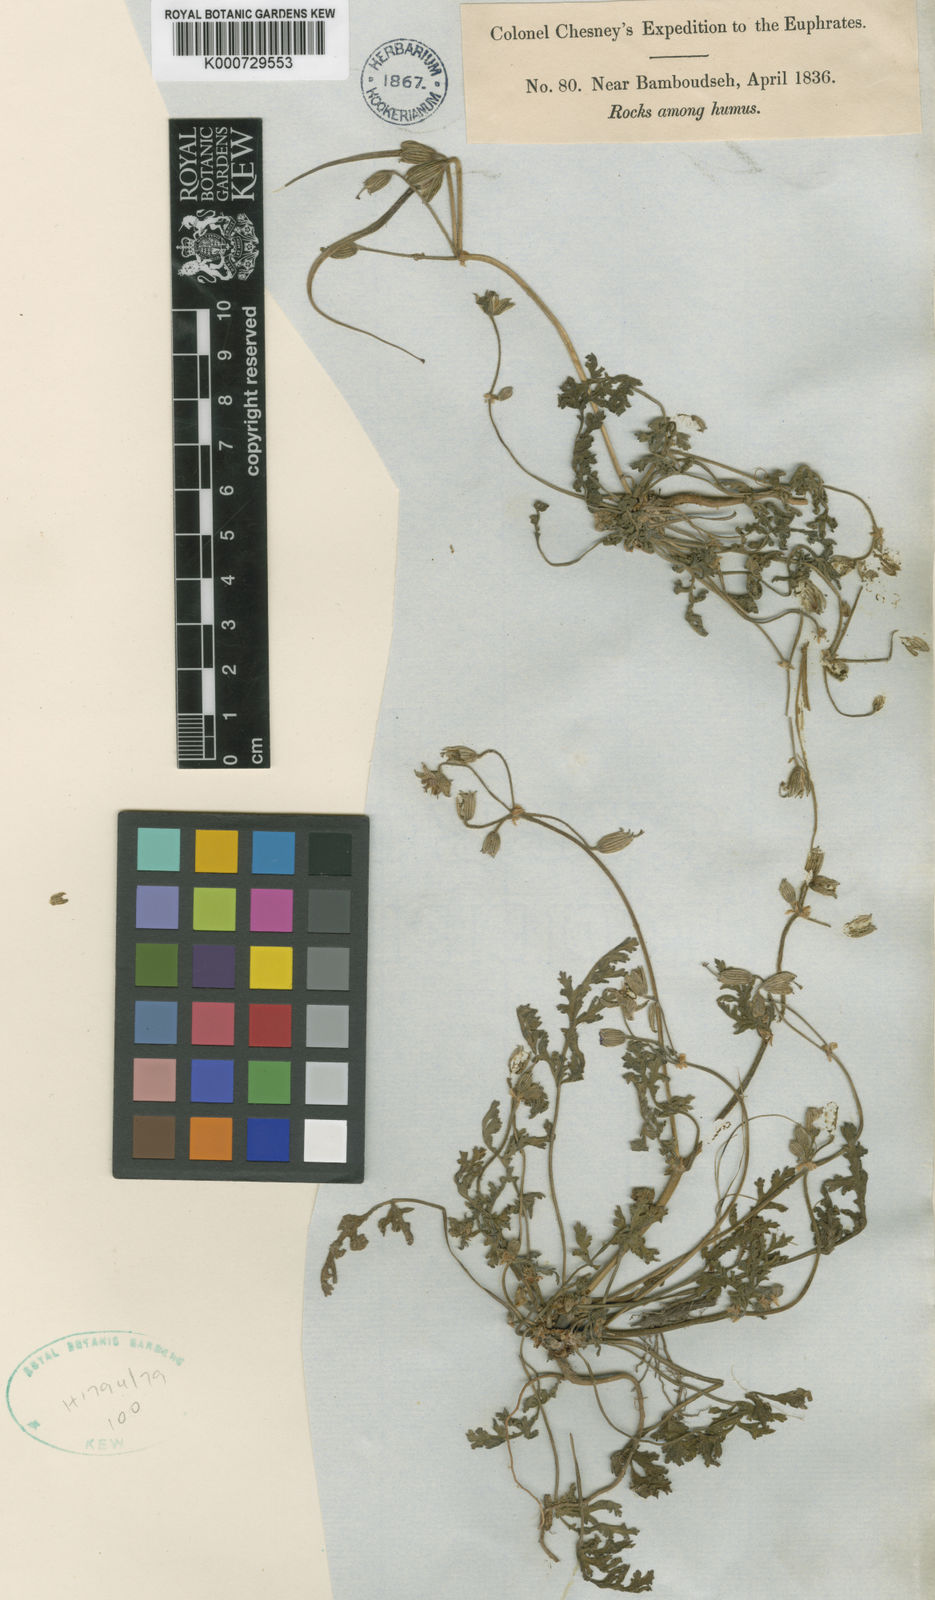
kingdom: Plantae
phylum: Tracheophyta
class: Magnoliopsida
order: Geraniales
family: Geraniaceae
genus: Erodium
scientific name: Erodium
